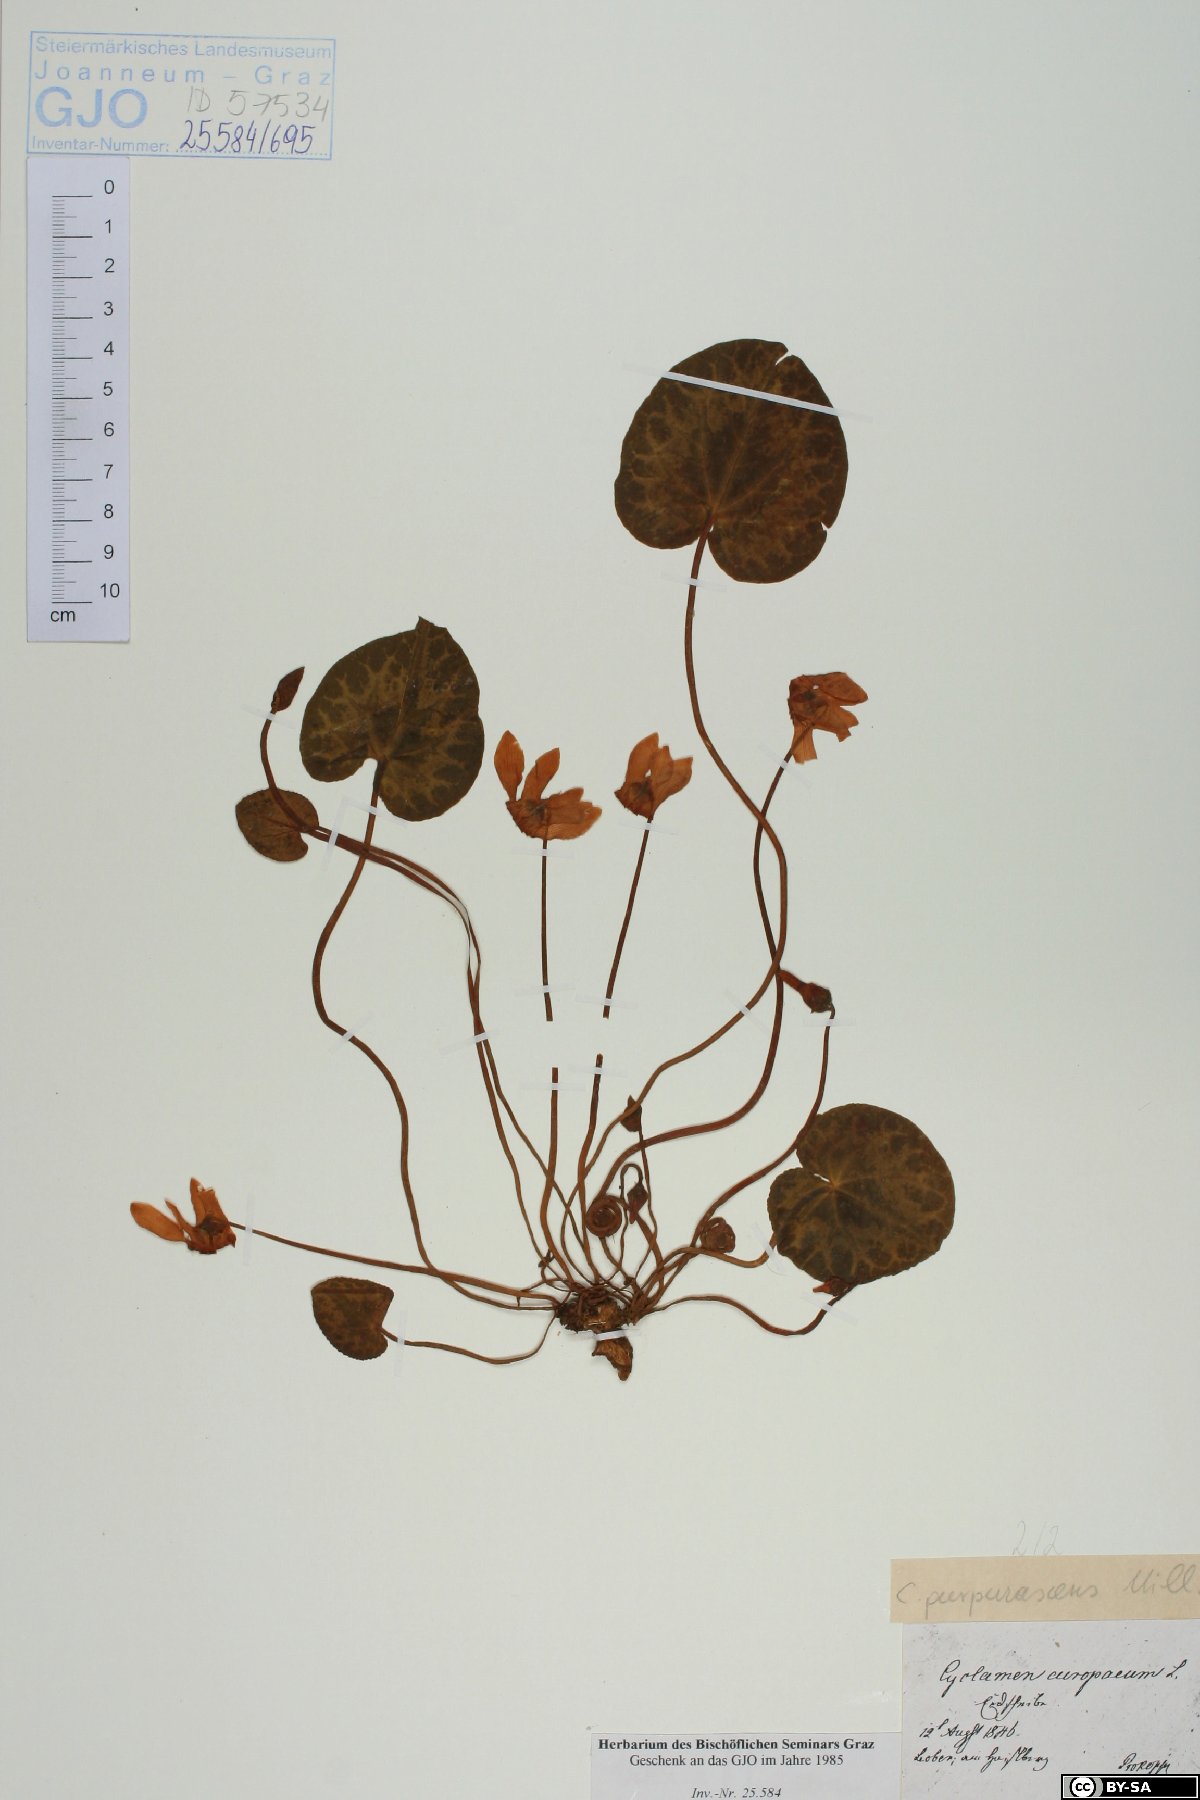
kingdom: Plantae
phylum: Tracheophyta
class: Magnoliopsida
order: Ericales
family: Primulaceae
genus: Cyclamen
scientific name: Cyclamen purpurascens
